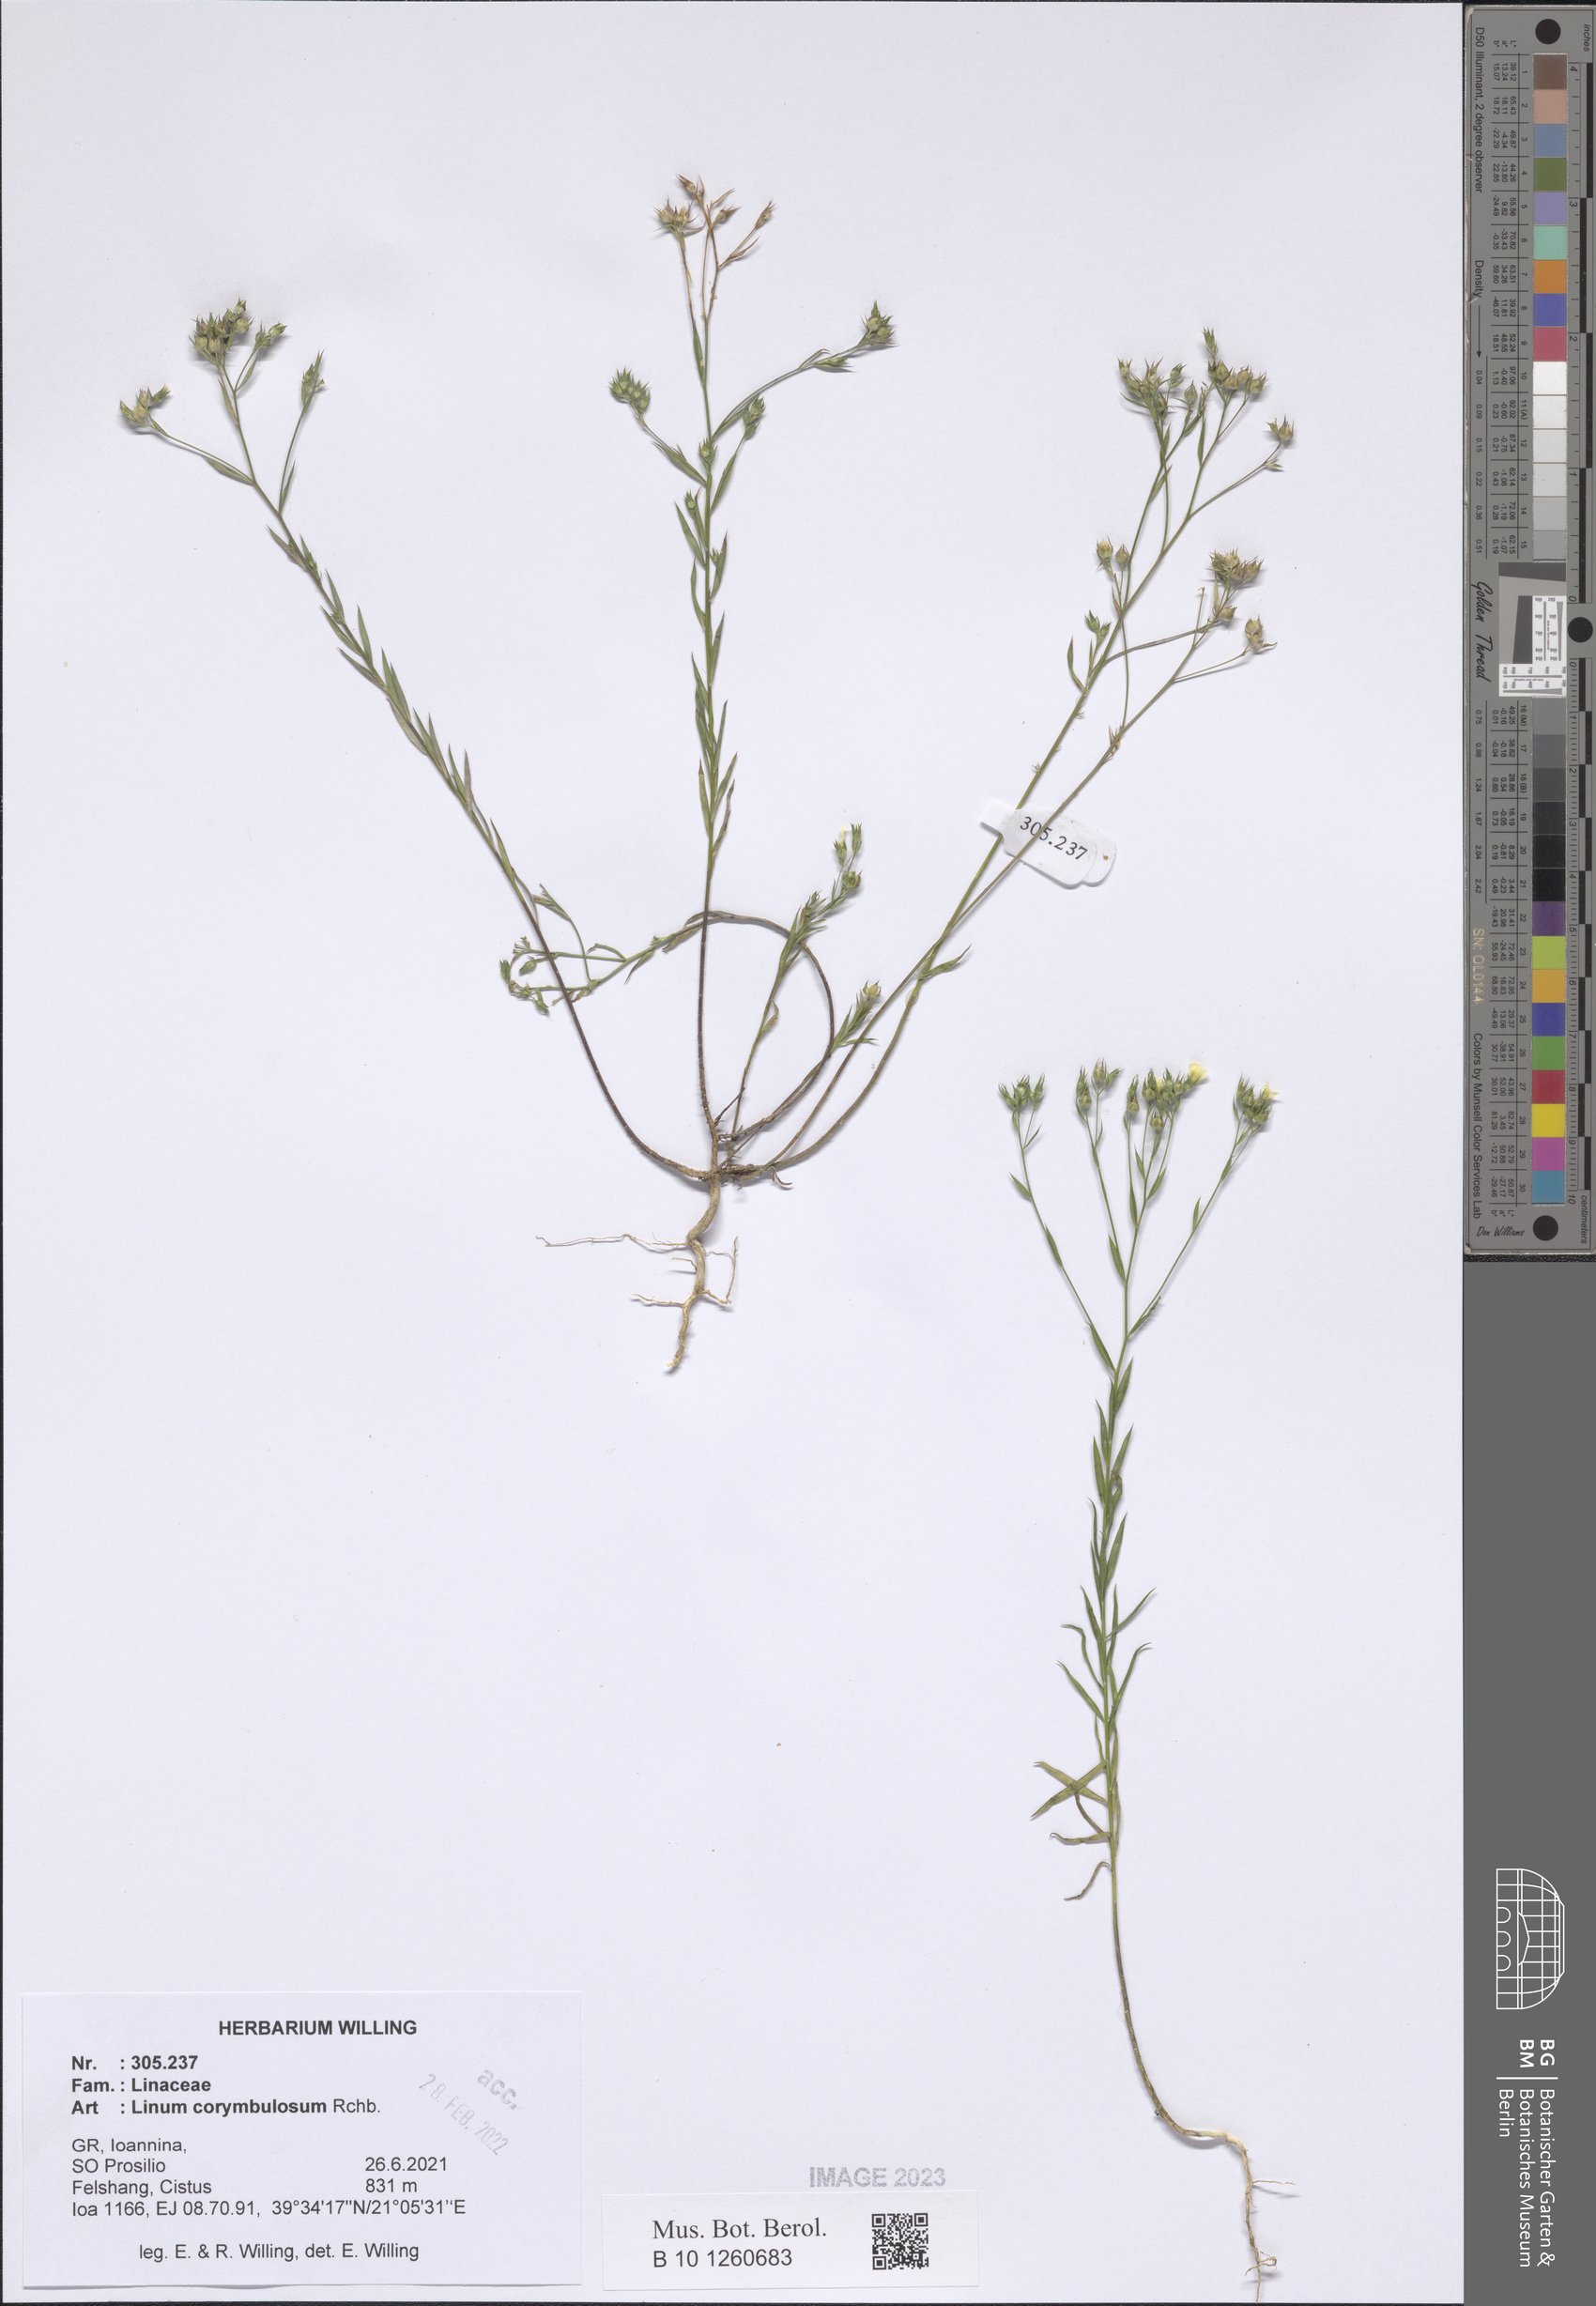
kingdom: Plantae
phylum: Tracheophyta
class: Magnoliopsida
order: Malpighiales
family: Linaceae
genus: Linum
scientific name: Linum corymbulosum
